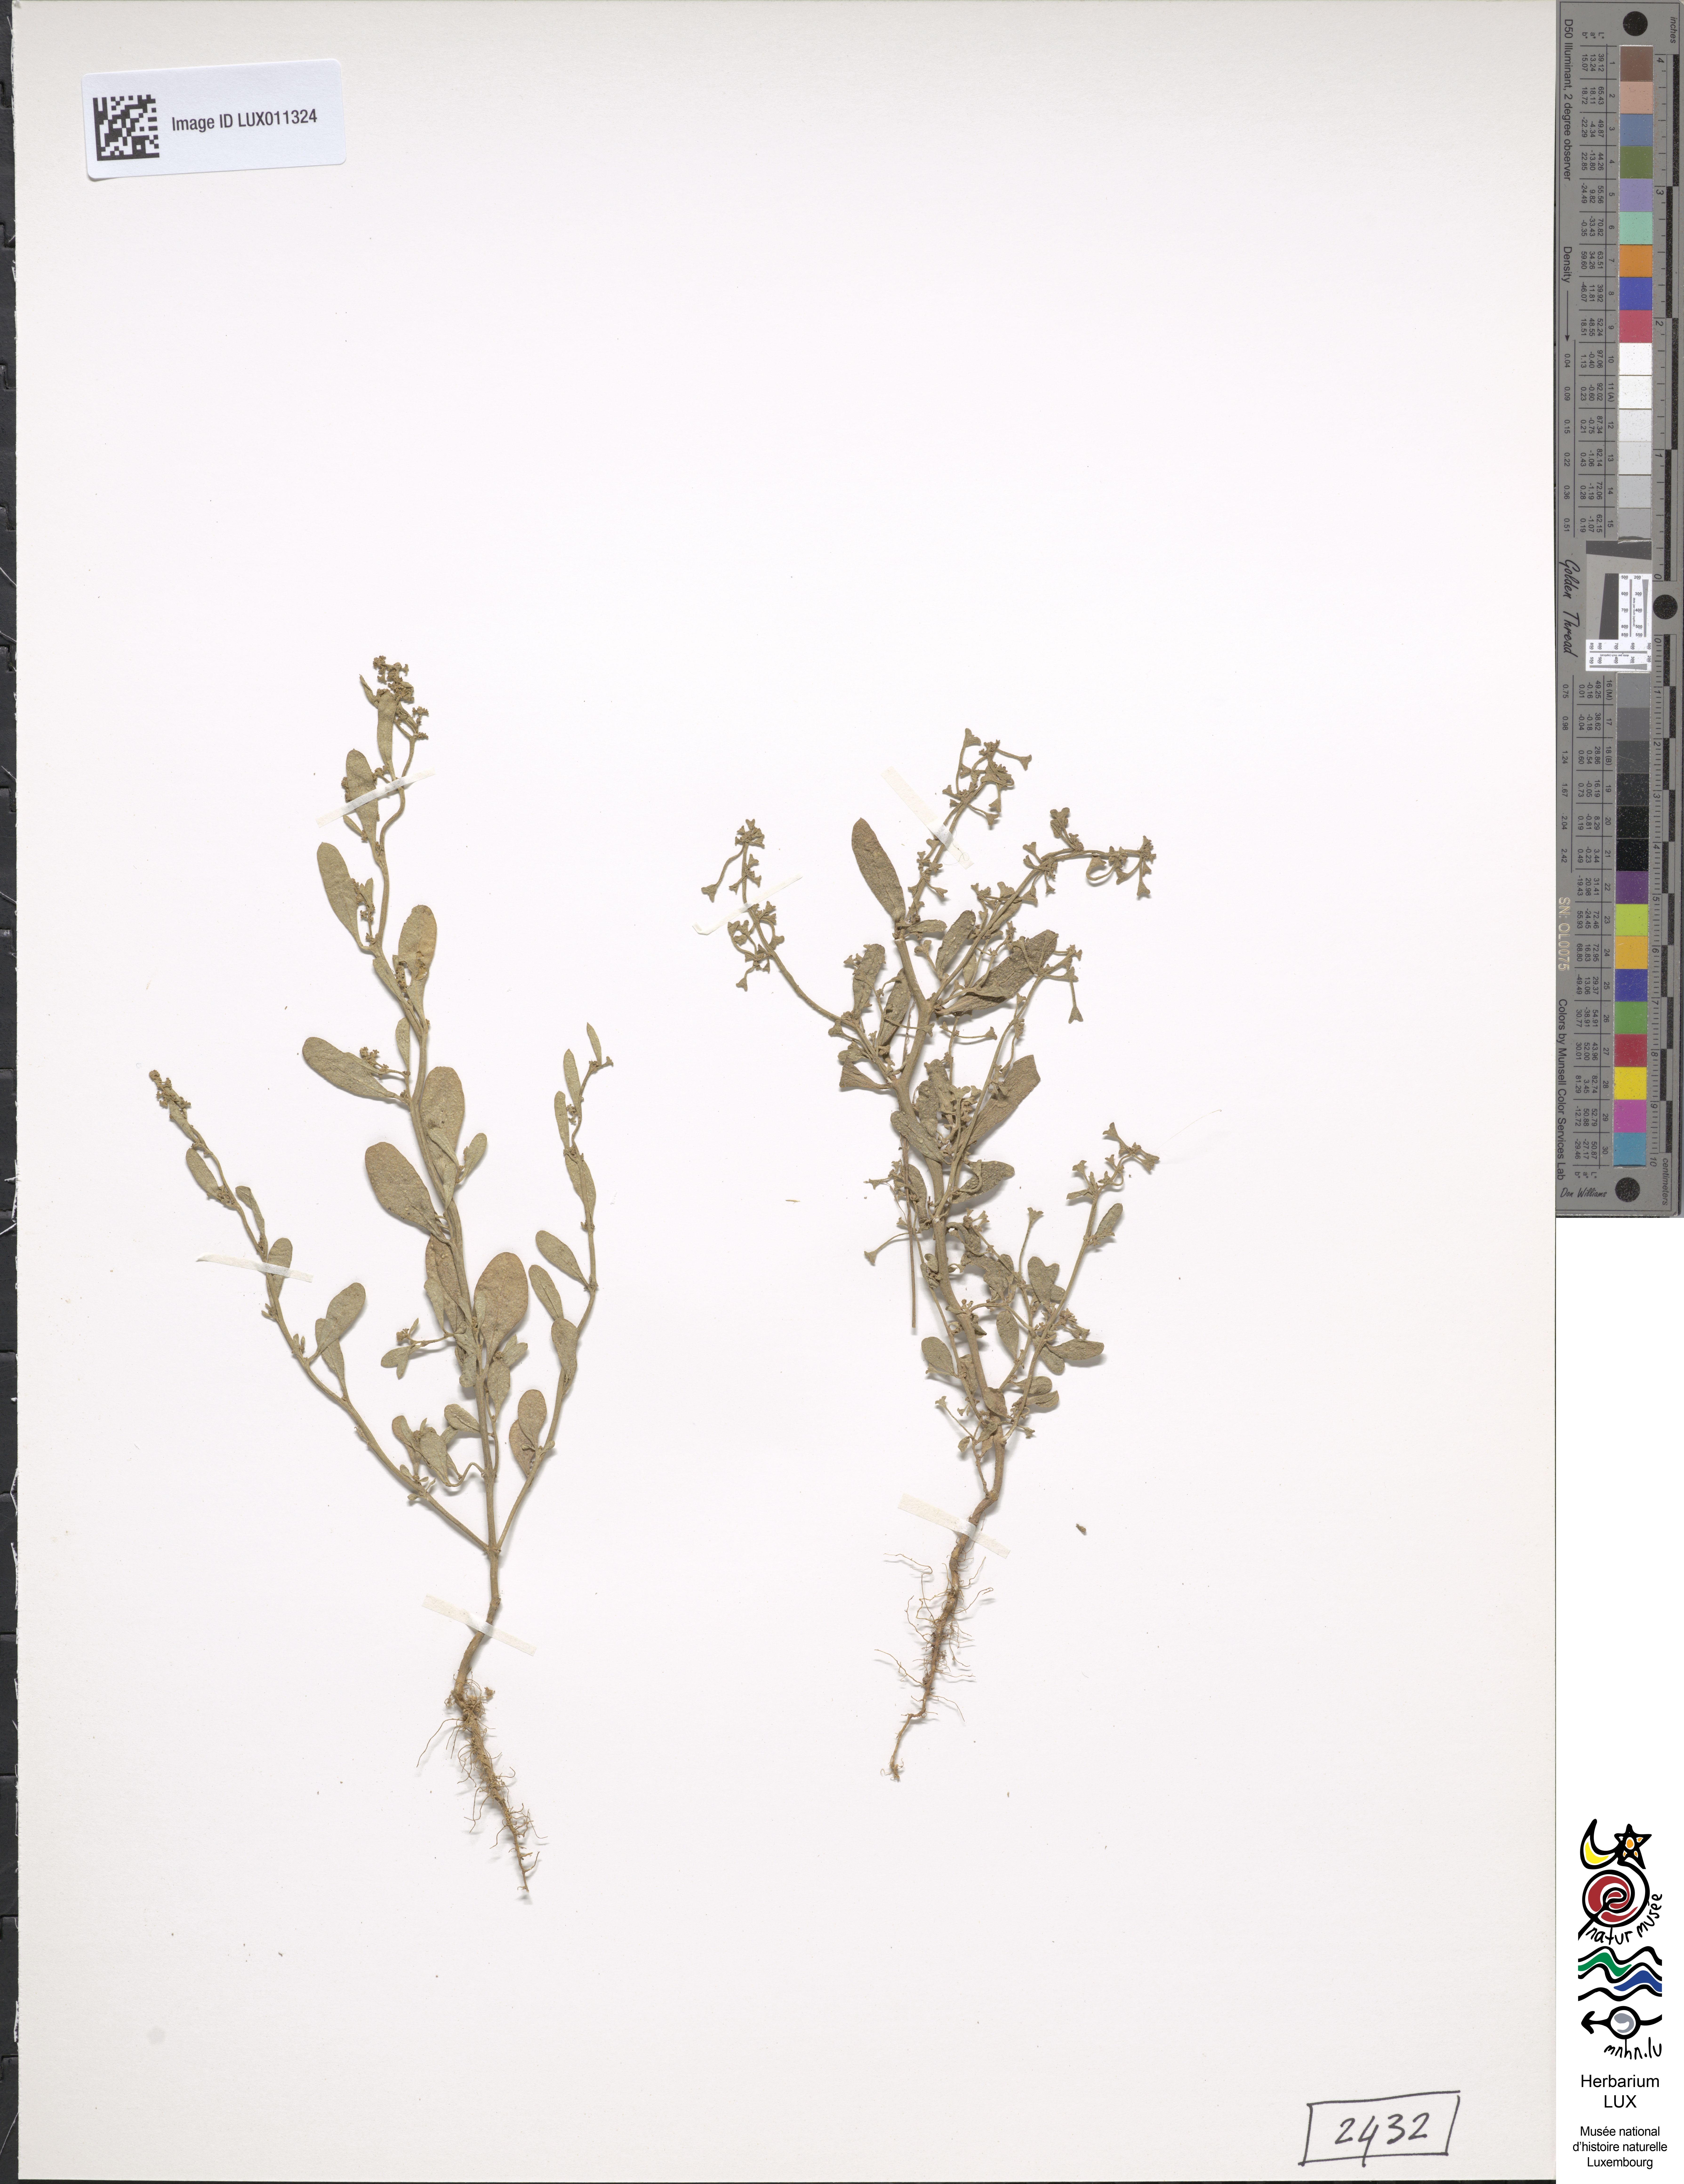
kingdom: Plantae
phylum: Tracheophyta
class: Magnoliopsida
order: Caryophyllales
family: Amaranthaceae
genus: Halimione
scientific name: Halimione pedunculata
